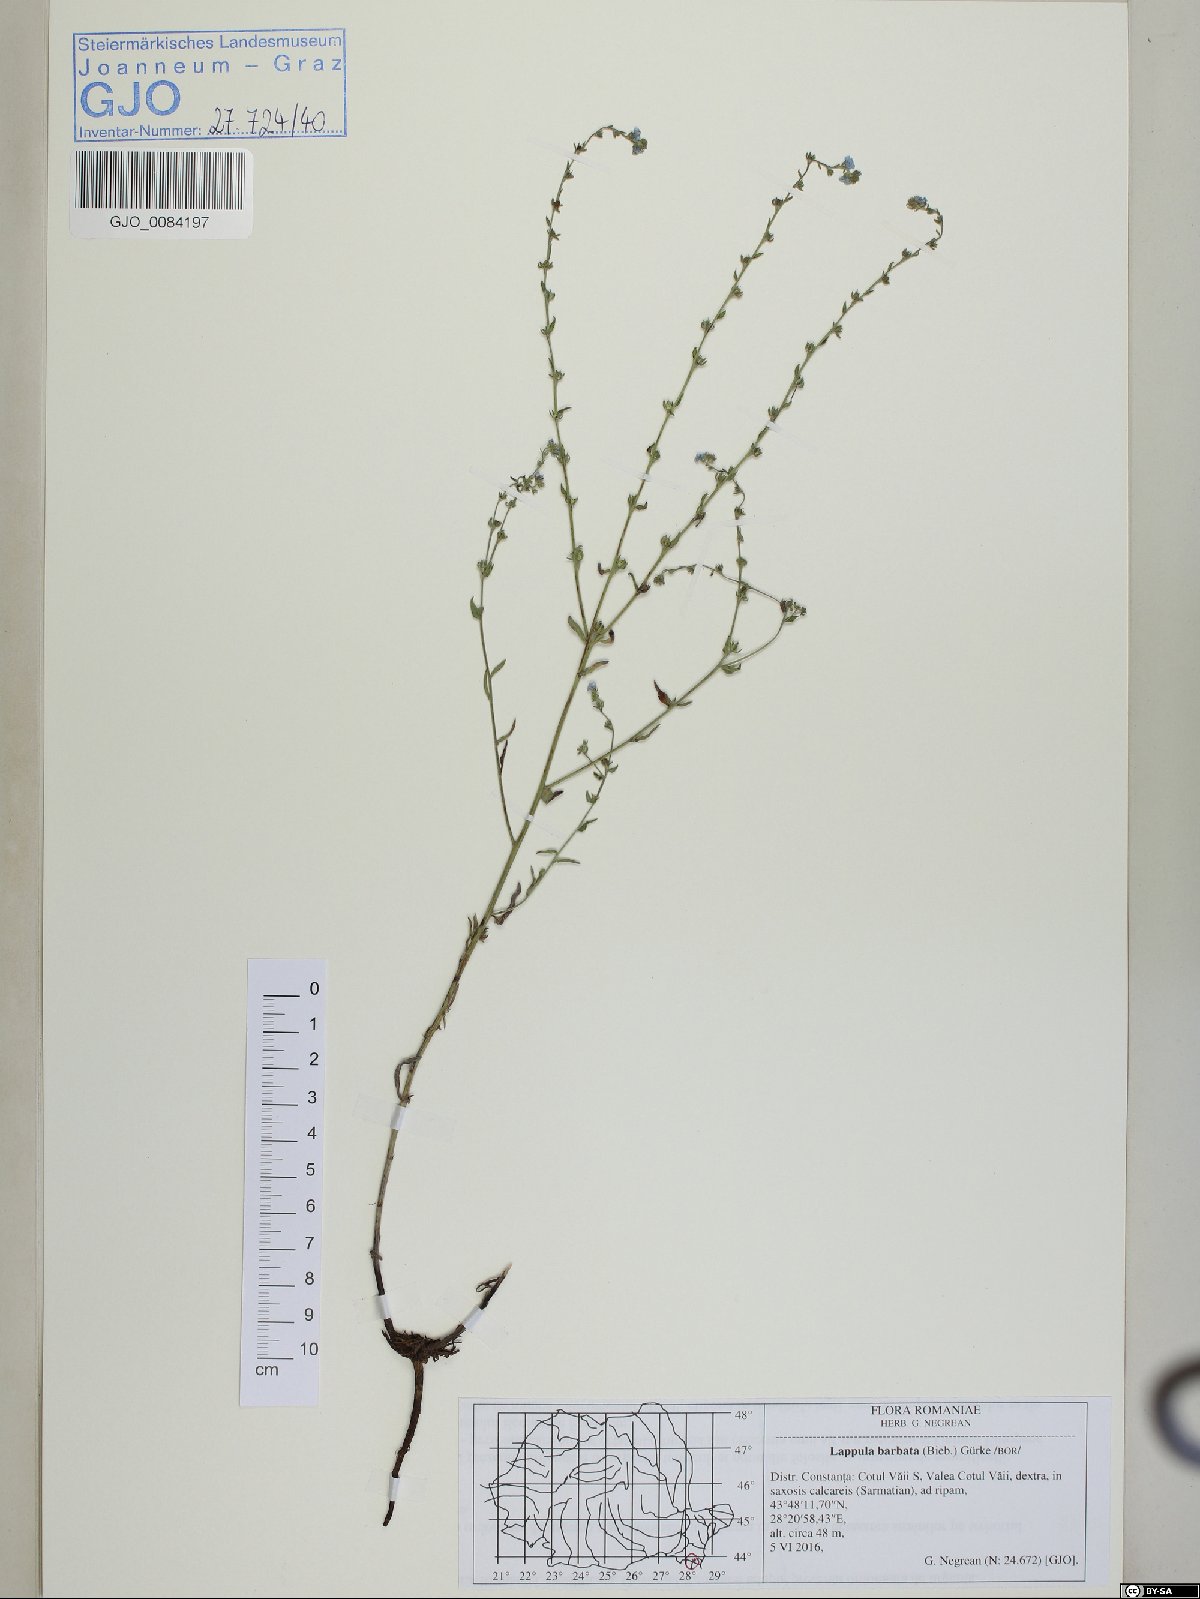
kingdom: Plantae
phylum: Tracheophyta
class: Magnoliopsida
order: Boraginales
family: Boraginaceae
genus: Lappula
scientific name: Lappula barbata
